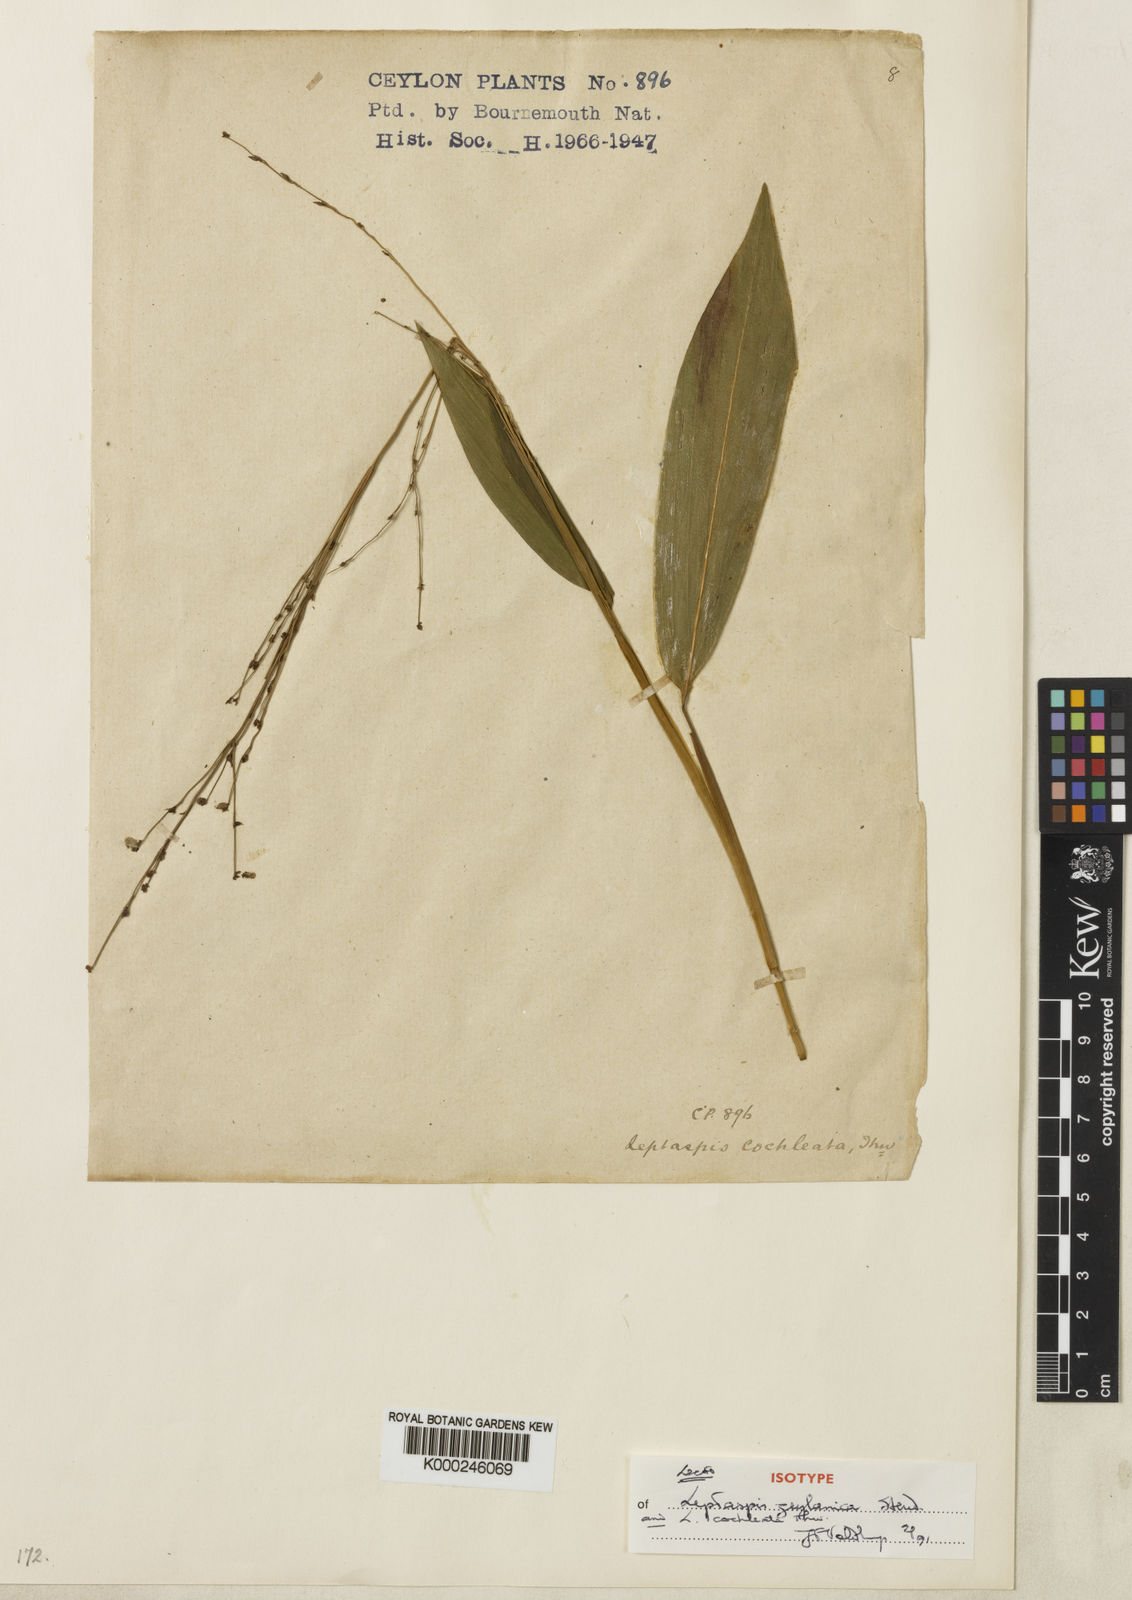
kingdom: Plantae
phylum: Tracheophyta
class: Liliopsida
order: Poales
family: Poaceae
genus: Leptaspis
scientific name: Leptaspis zeylanica
